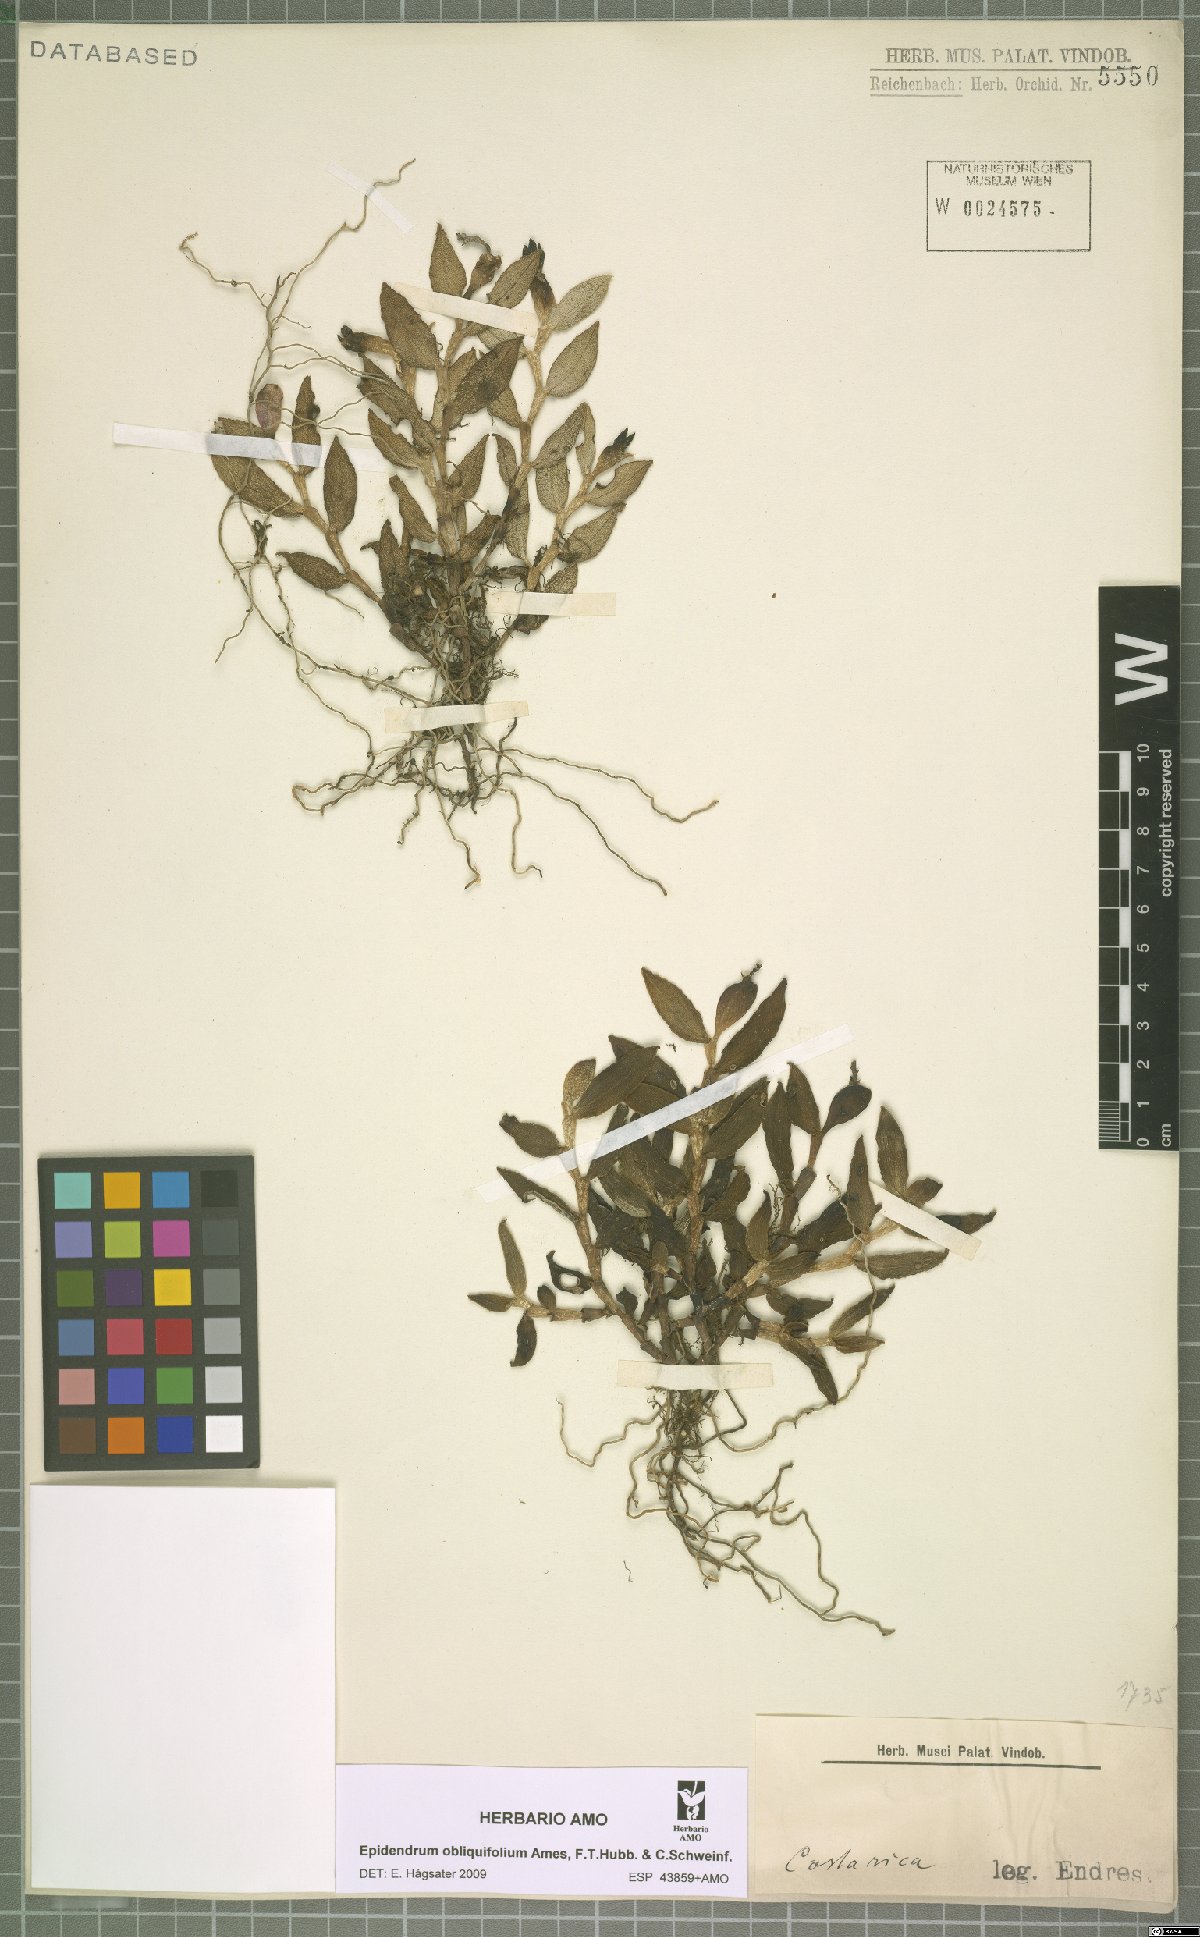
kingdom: Plantae
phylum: Tracheophyta
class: Liliopsida
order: Asparagales
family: Orchidaceae
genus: Epidendrum
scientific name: Epidendrum obliquifolium
